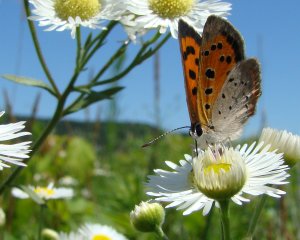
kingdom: Animalia
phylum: Arthropoda
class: Insecta
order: Lepidoptera
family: Lycaenidae
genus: Lycaena
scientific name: Lycaena phlaeas
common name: American Copper
